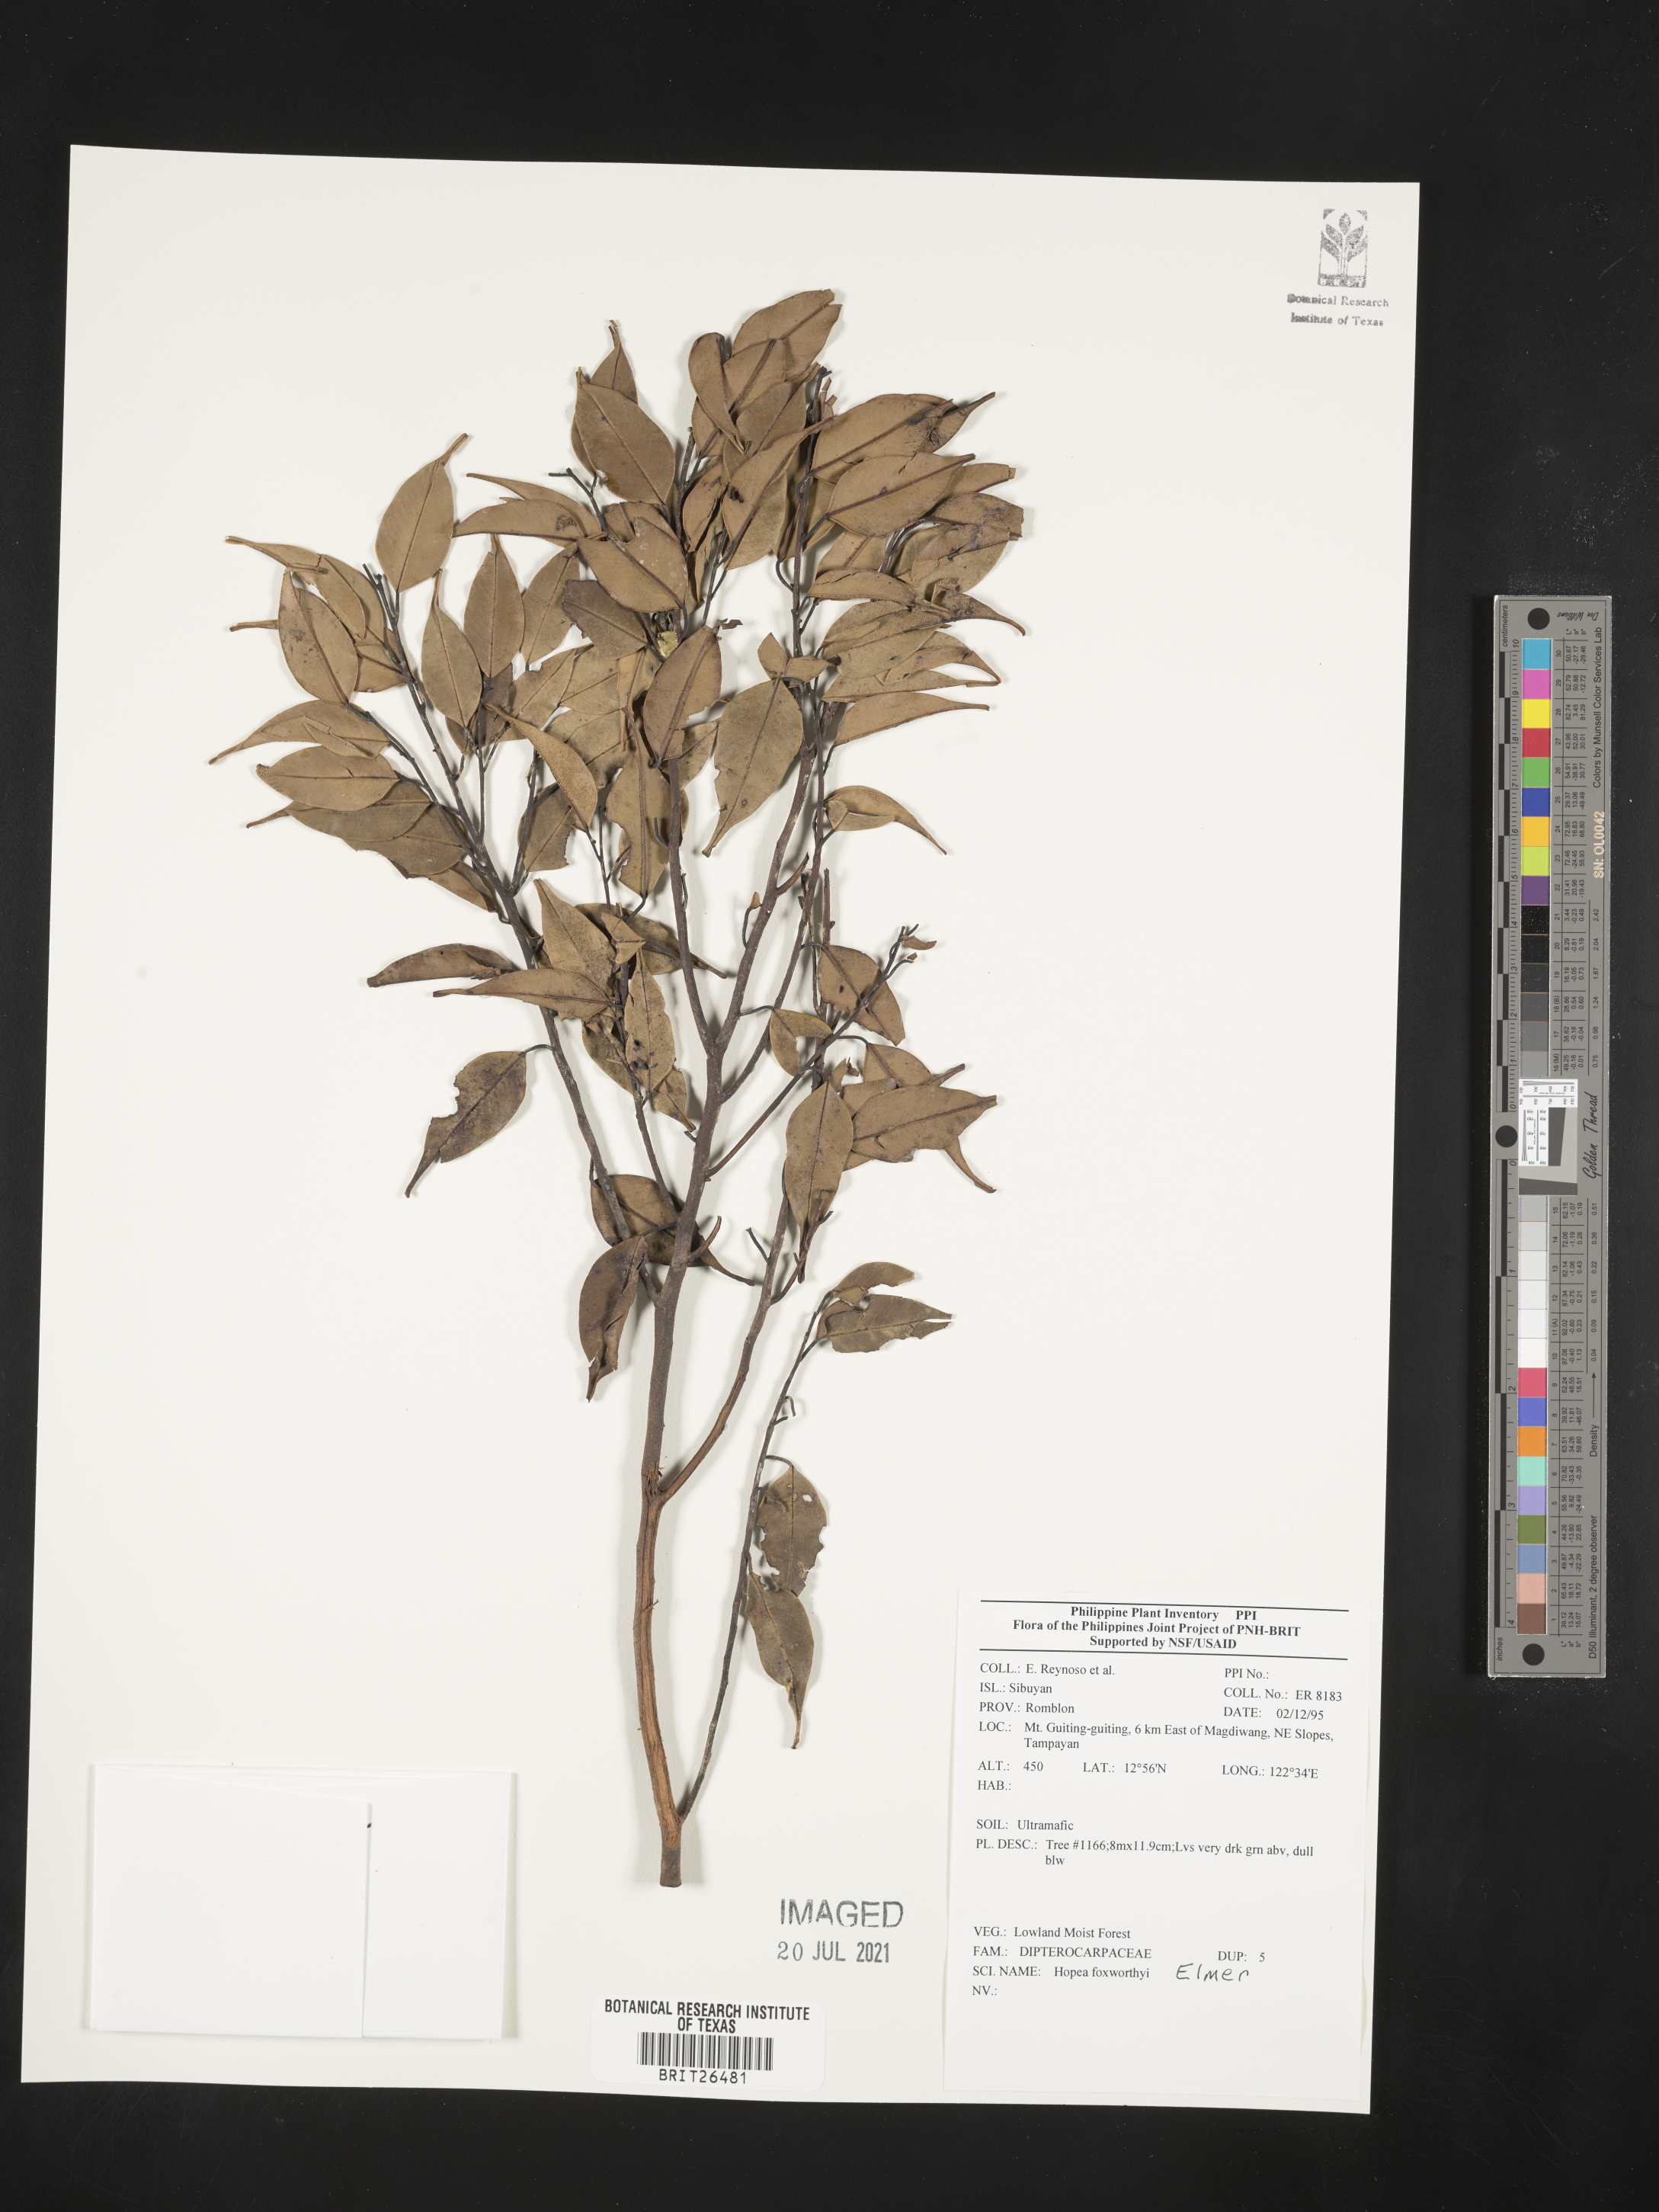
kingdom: Plantae
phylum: Tracheophyta
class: Magnoliopsida
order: Malvales
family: Dipterocarpaceae
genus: Hopea
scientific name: Hopea foxworthyi
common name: Dalingdingan
